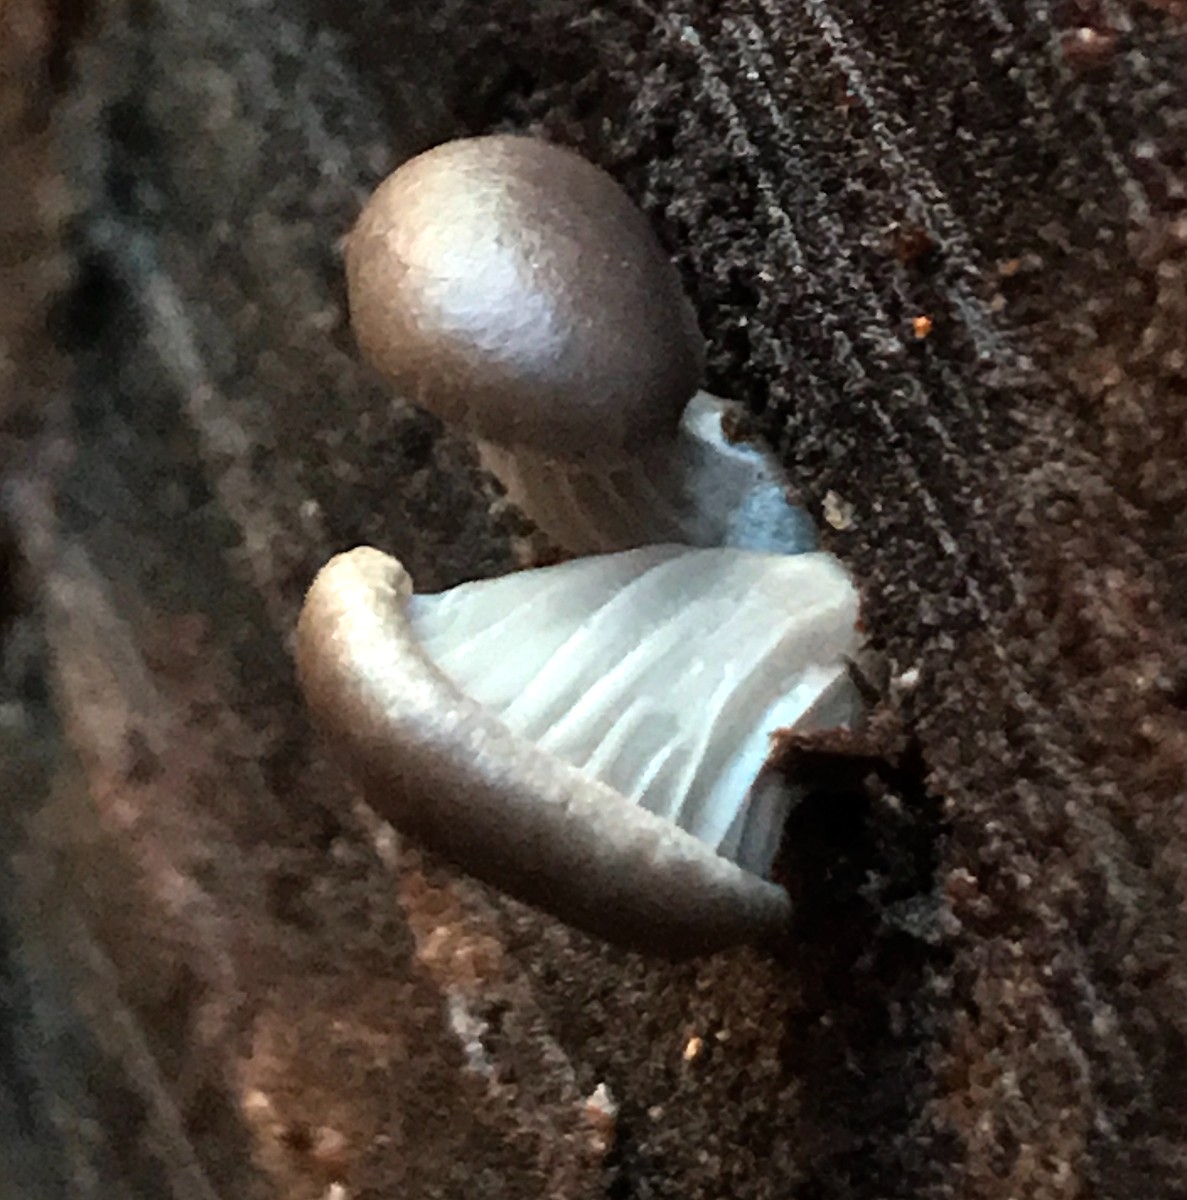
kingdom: Fungi
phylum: Basidiomycota
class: Agaricomycetes
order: Agaricales
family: Pleurotaceae
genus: Pleurotus
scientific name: Pleurotus ostreatus
